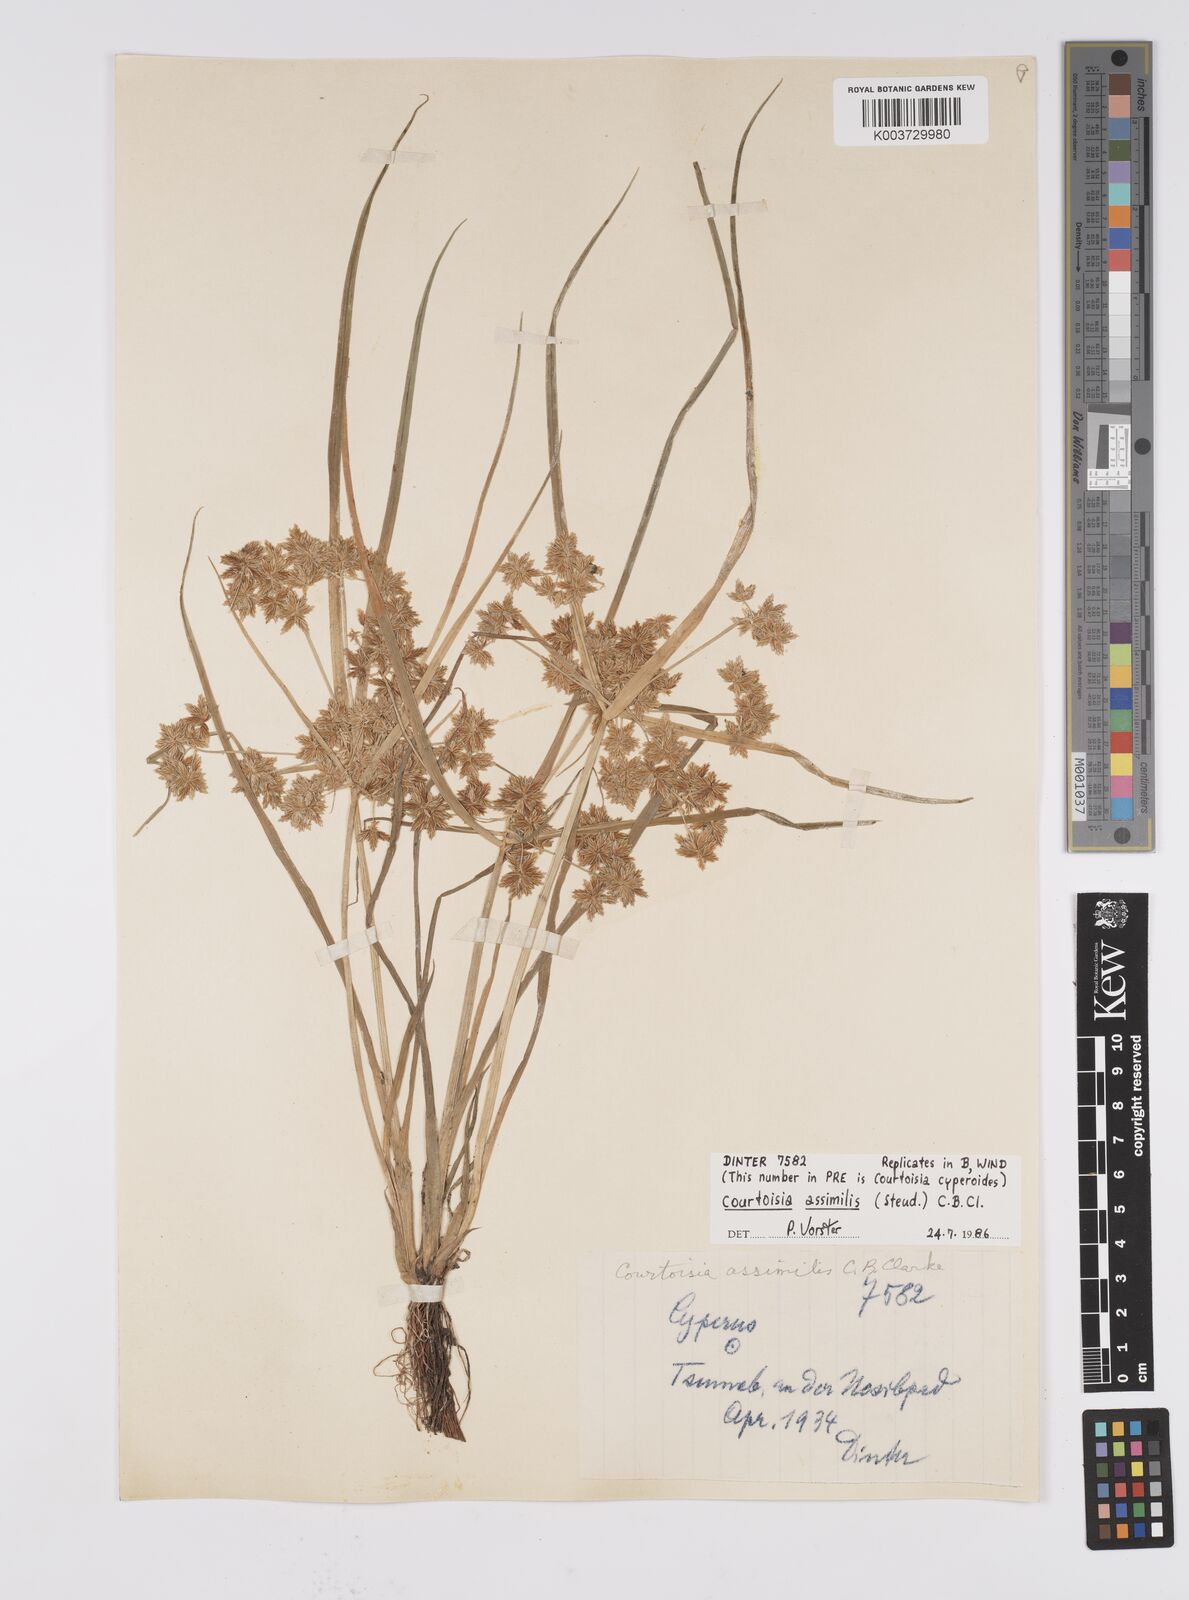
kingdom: Plantae
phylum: Tracheophyta
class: Liliopsida
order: Poales
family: Cyperaceae
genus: Cyperus
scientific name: Cyperus assimilis
